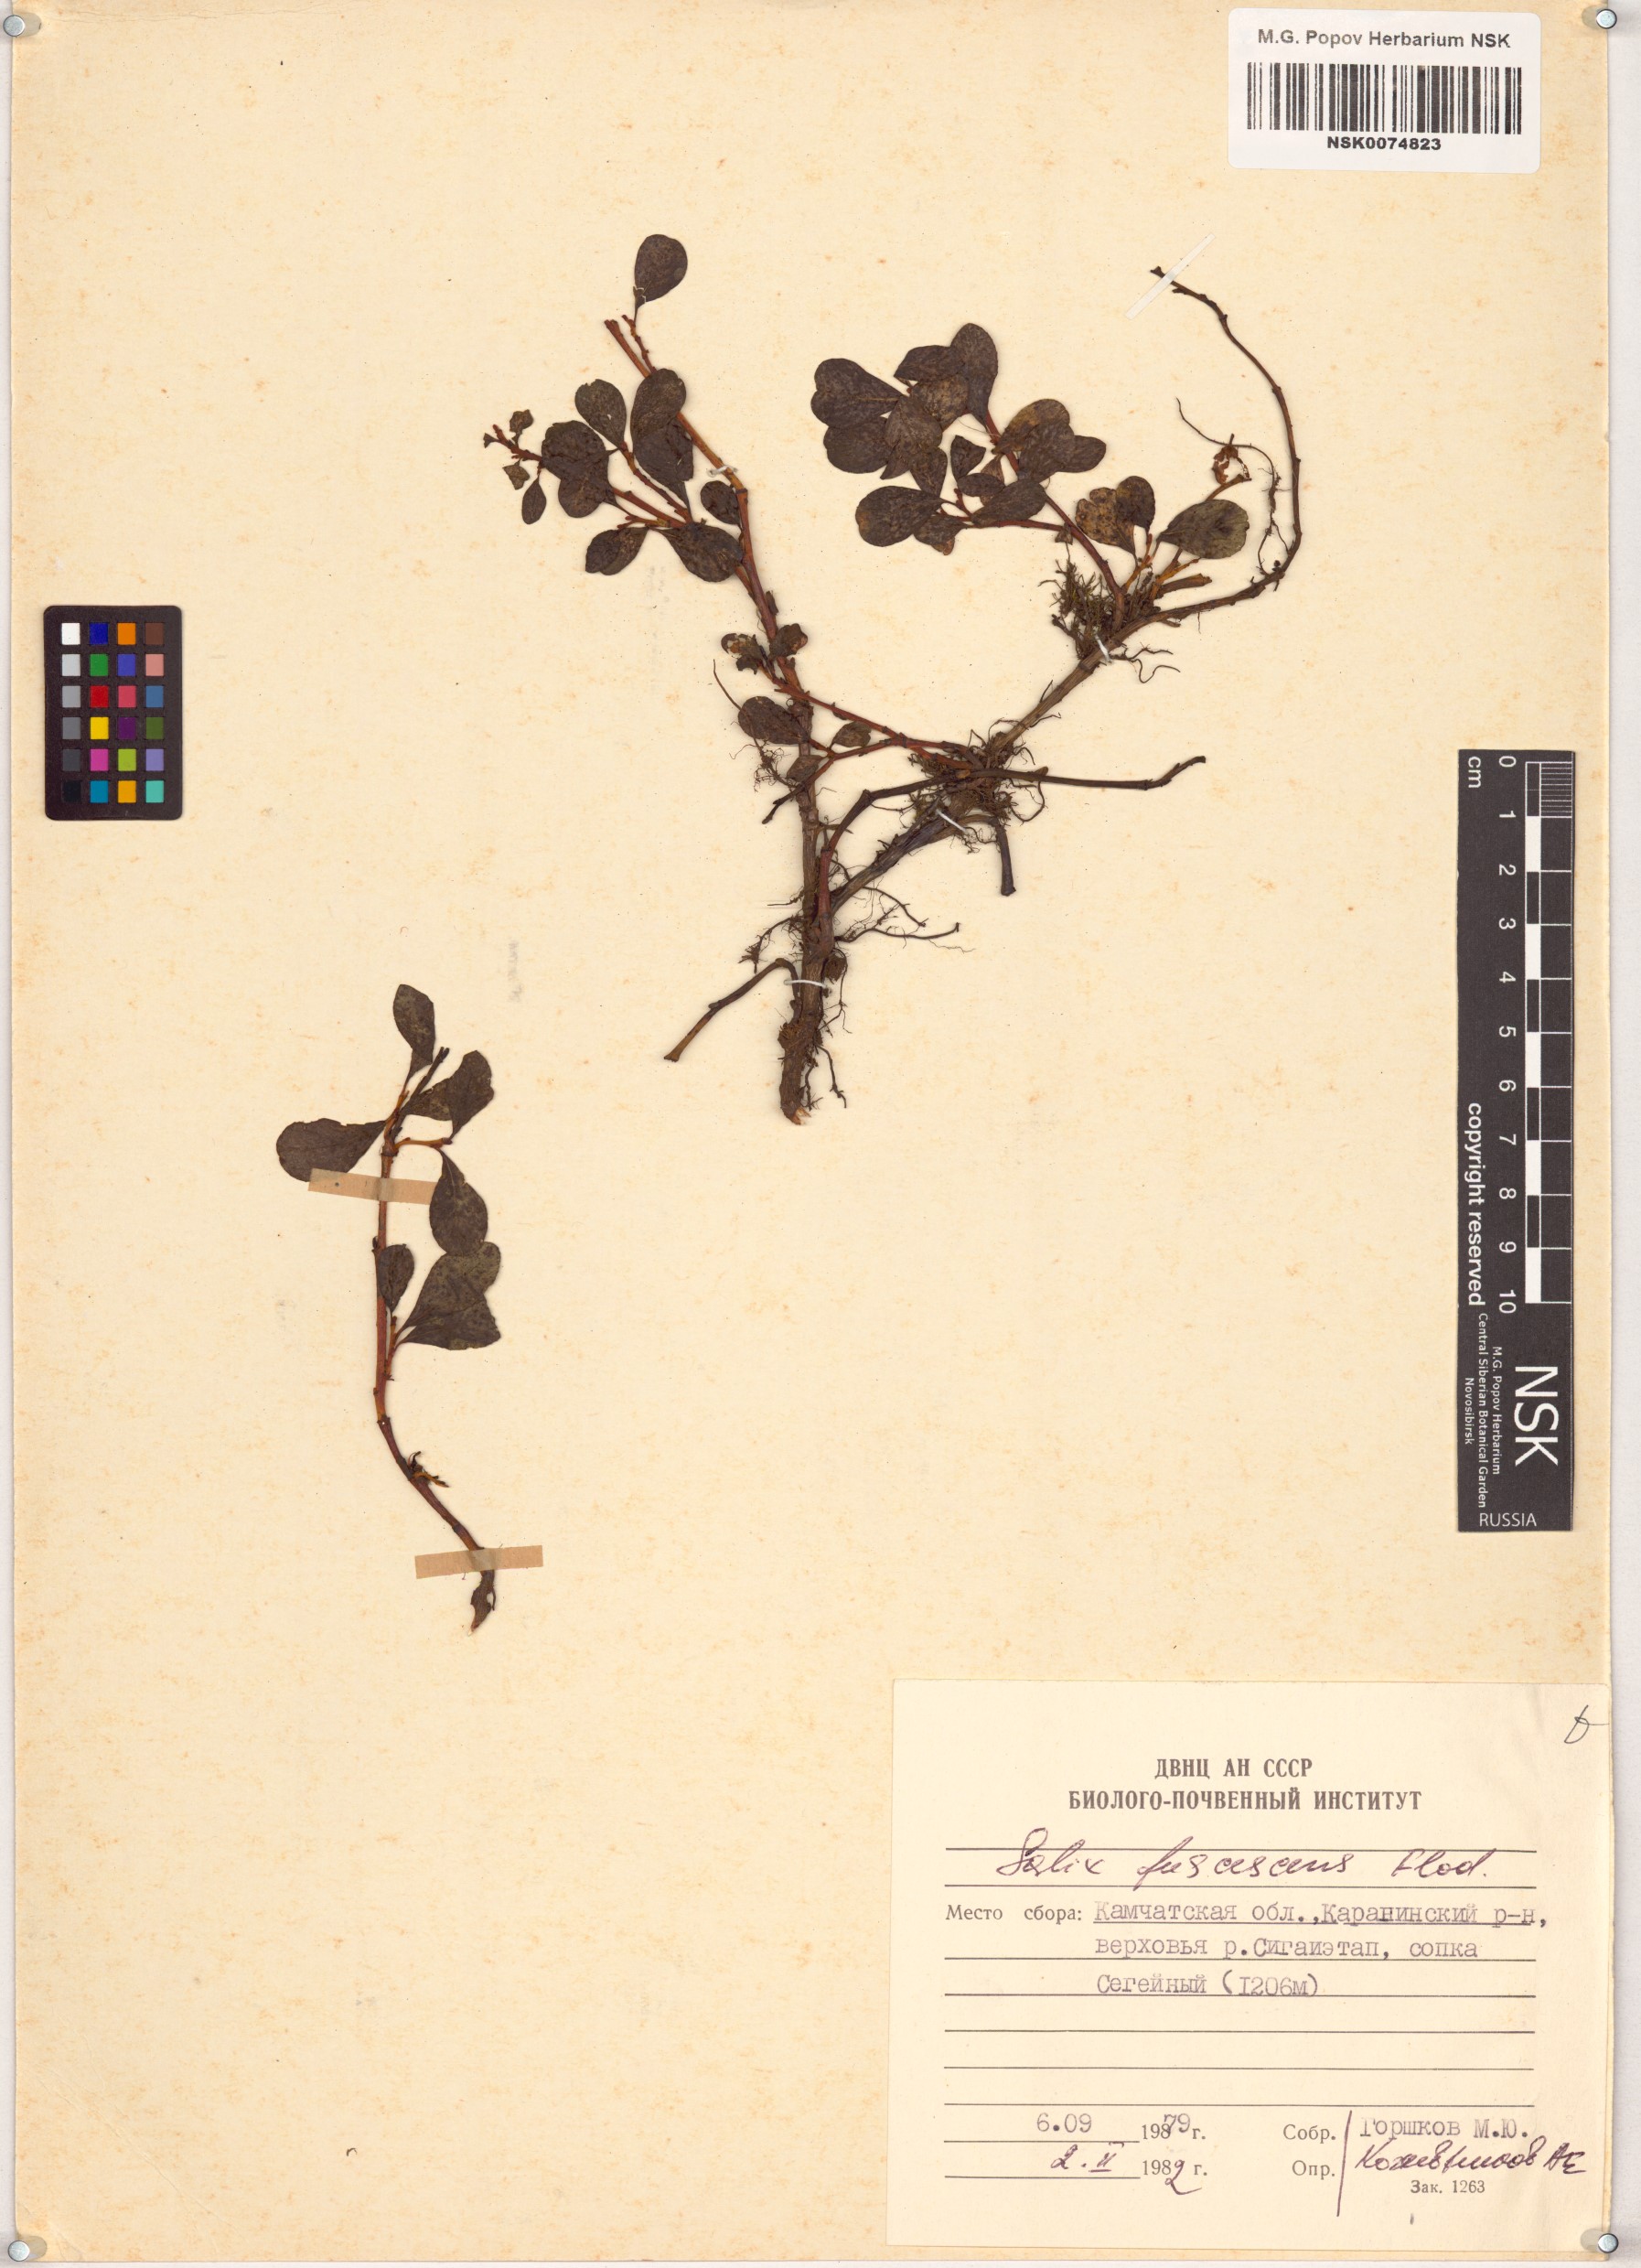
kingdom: Plantae
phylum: Tracheophyta
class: Magnoliopsida
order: Malpighiales
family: Salicaceae
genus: Salix
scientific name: Salix fuscescens
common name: Brownish willow
